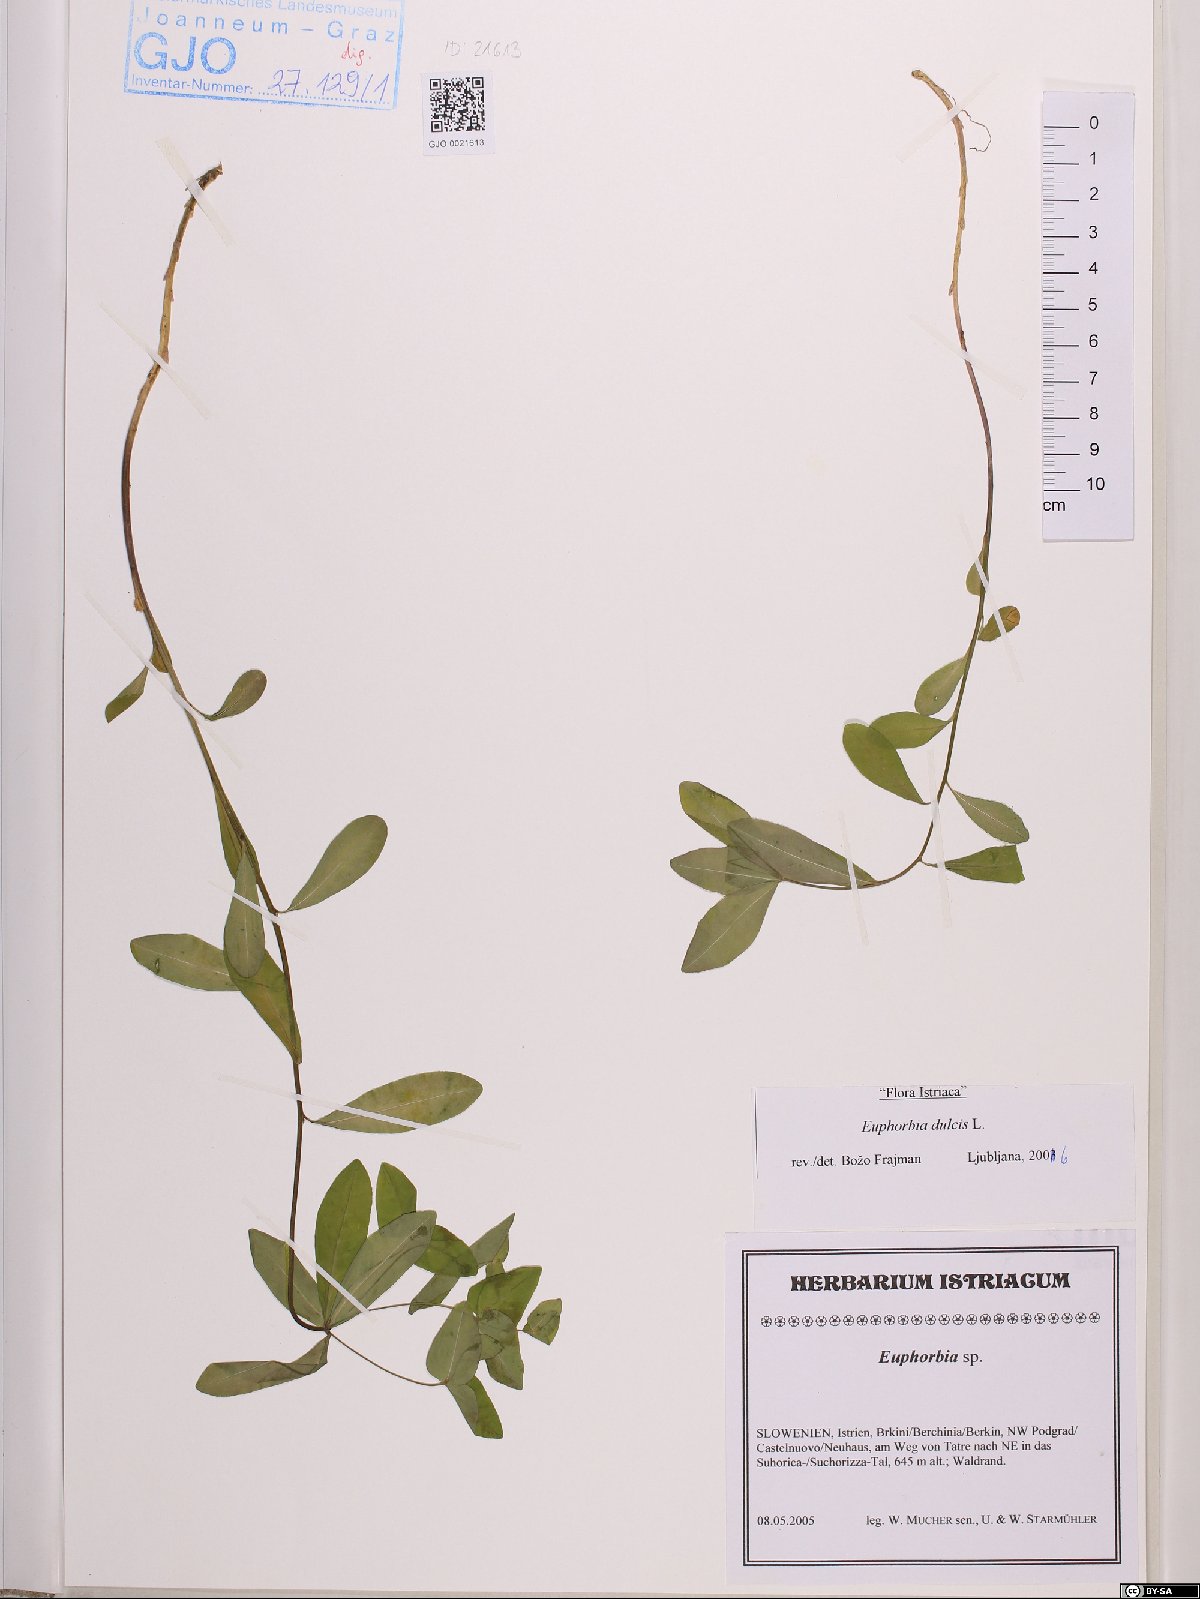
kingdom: Plantae
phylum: Tracheophyta
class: Magnoliopsida
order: Malpighiales
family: Euphorbiaceae
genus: Euphorbia
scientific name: Euphorbia dulcis
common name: Sweet spurge
